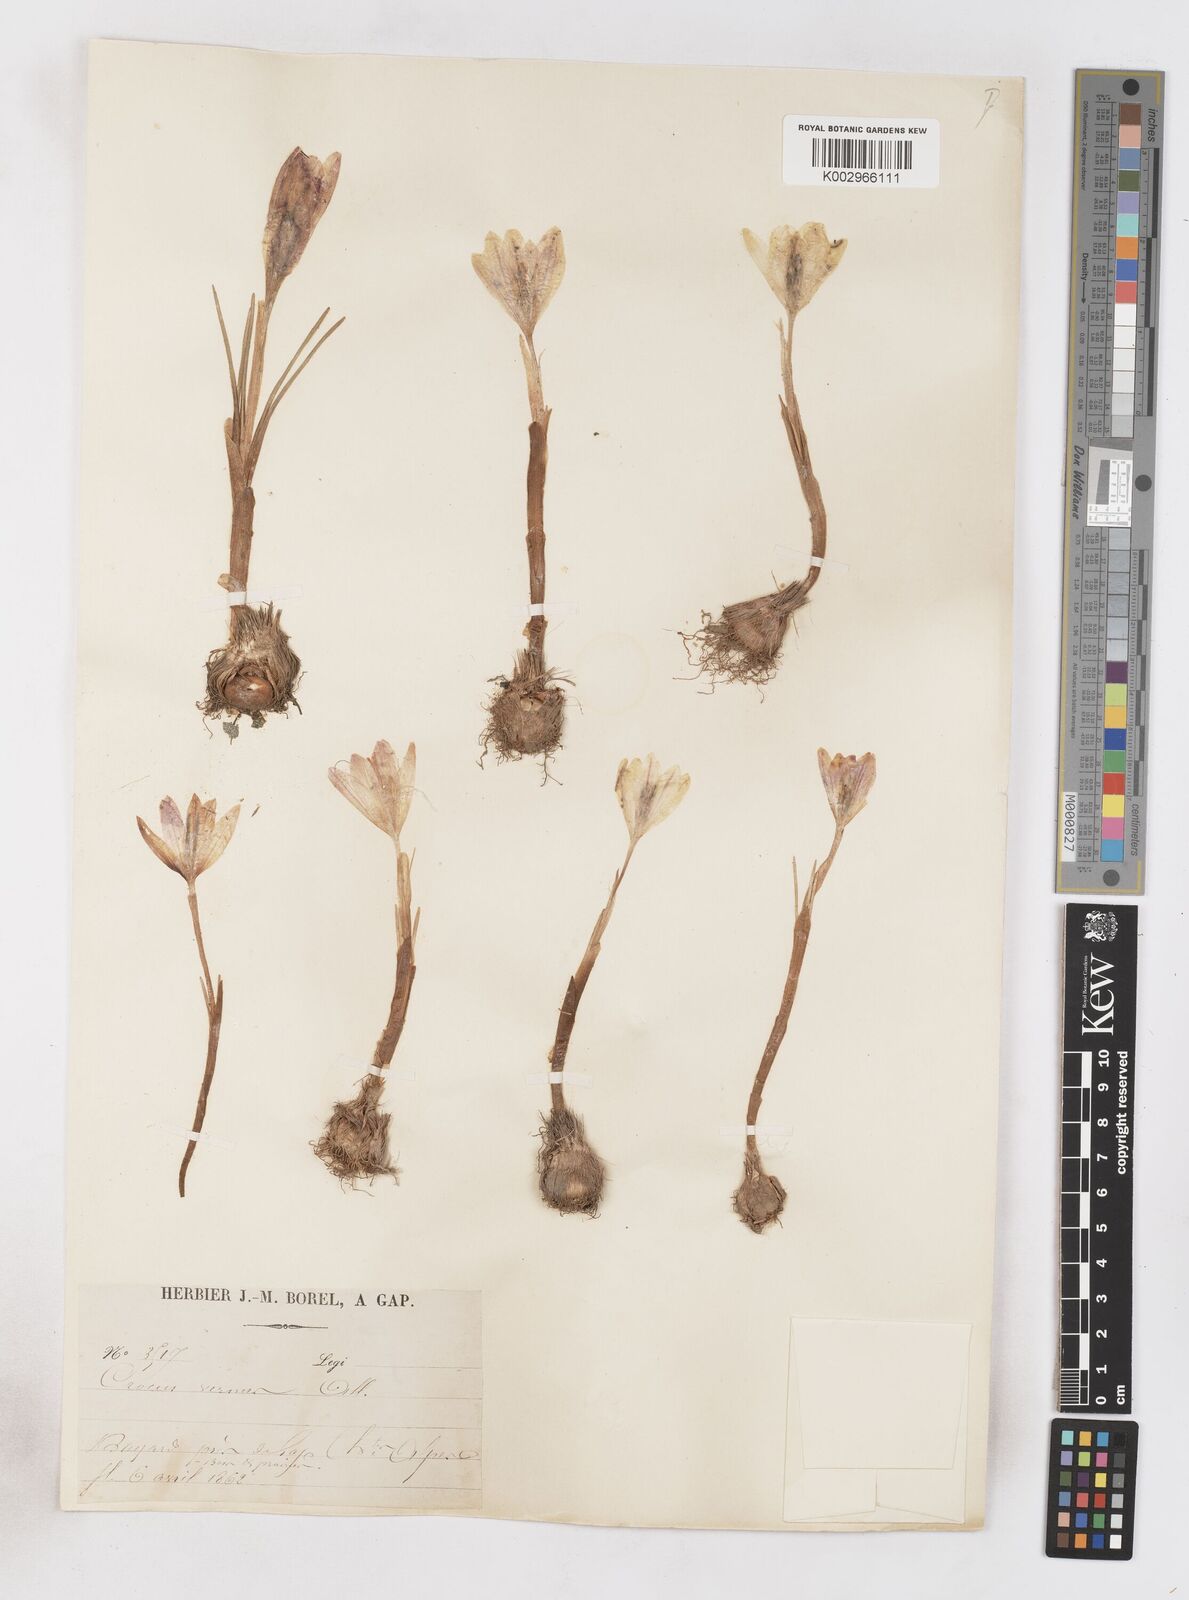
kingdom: Plantae
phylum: Tracheophyta
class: Liliopsida
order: Asparagales
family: Iridaceae
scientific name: Iridaceae
